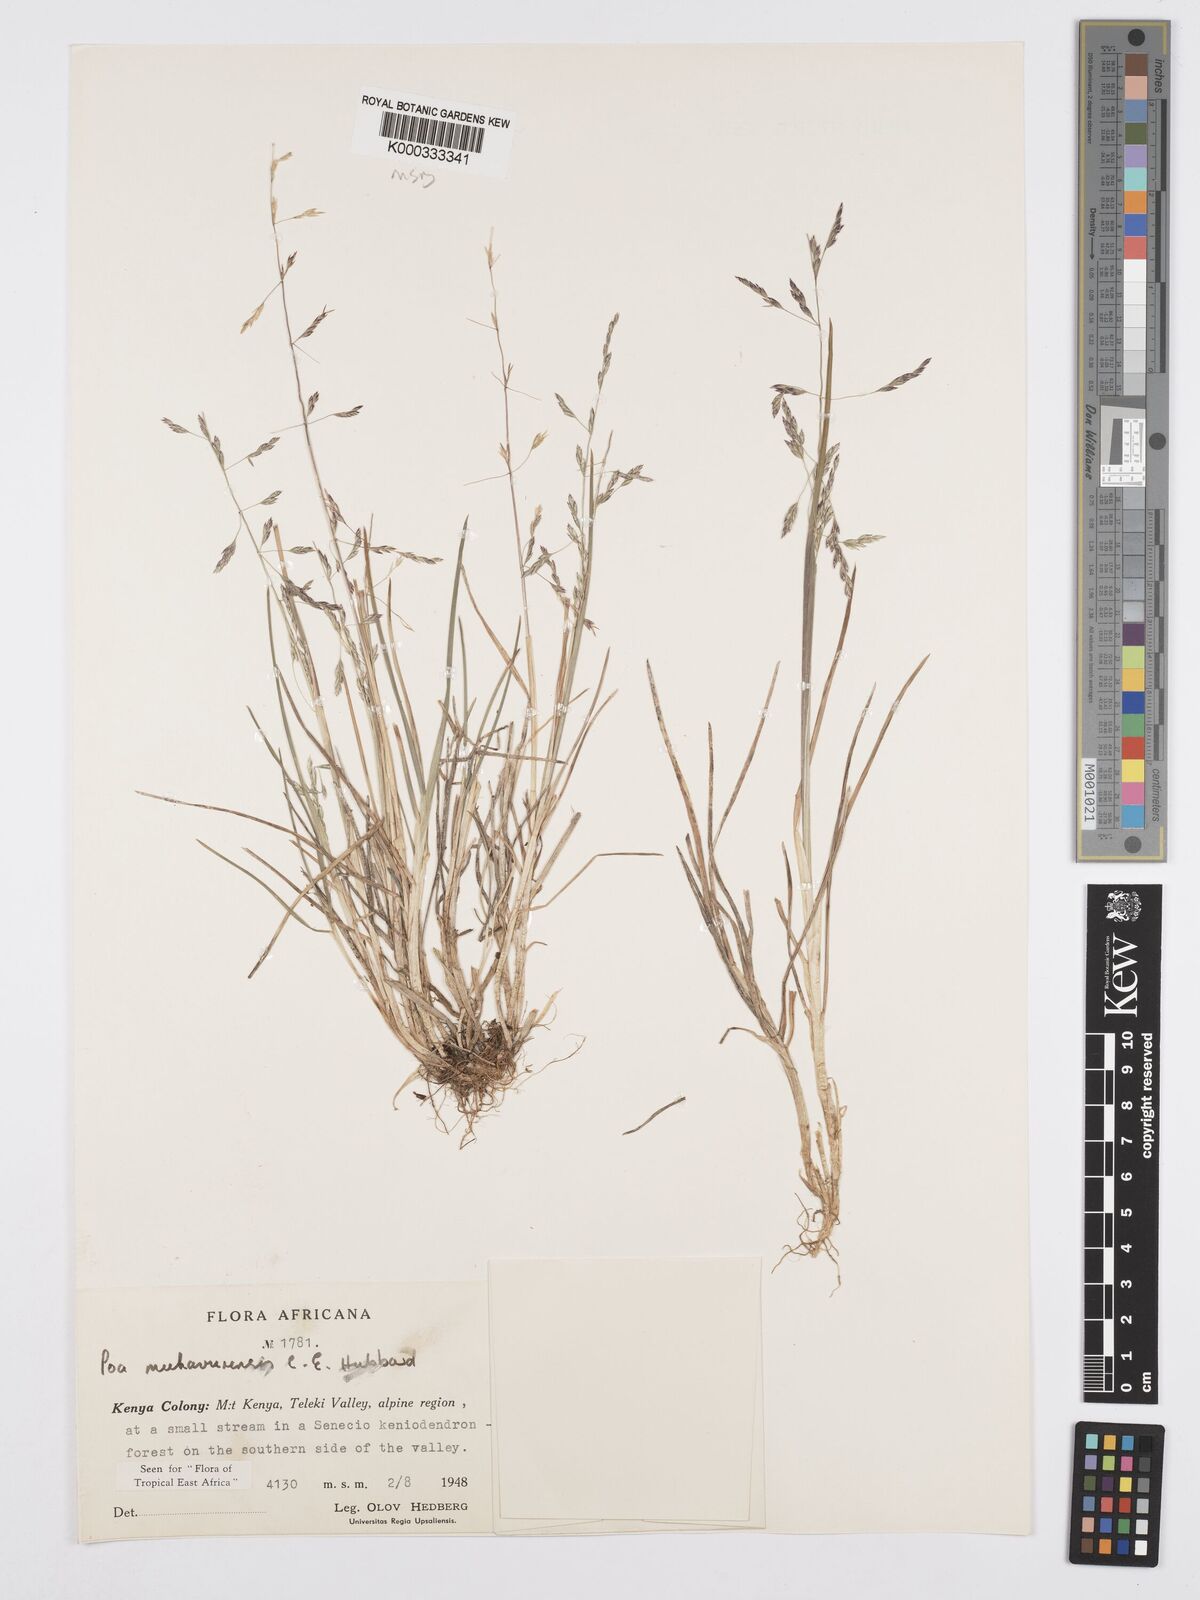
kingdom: Plantae
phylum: Tracheophyta
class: Liliopsida
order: Poales
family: Poaceae
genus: Poa
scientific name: Poa
